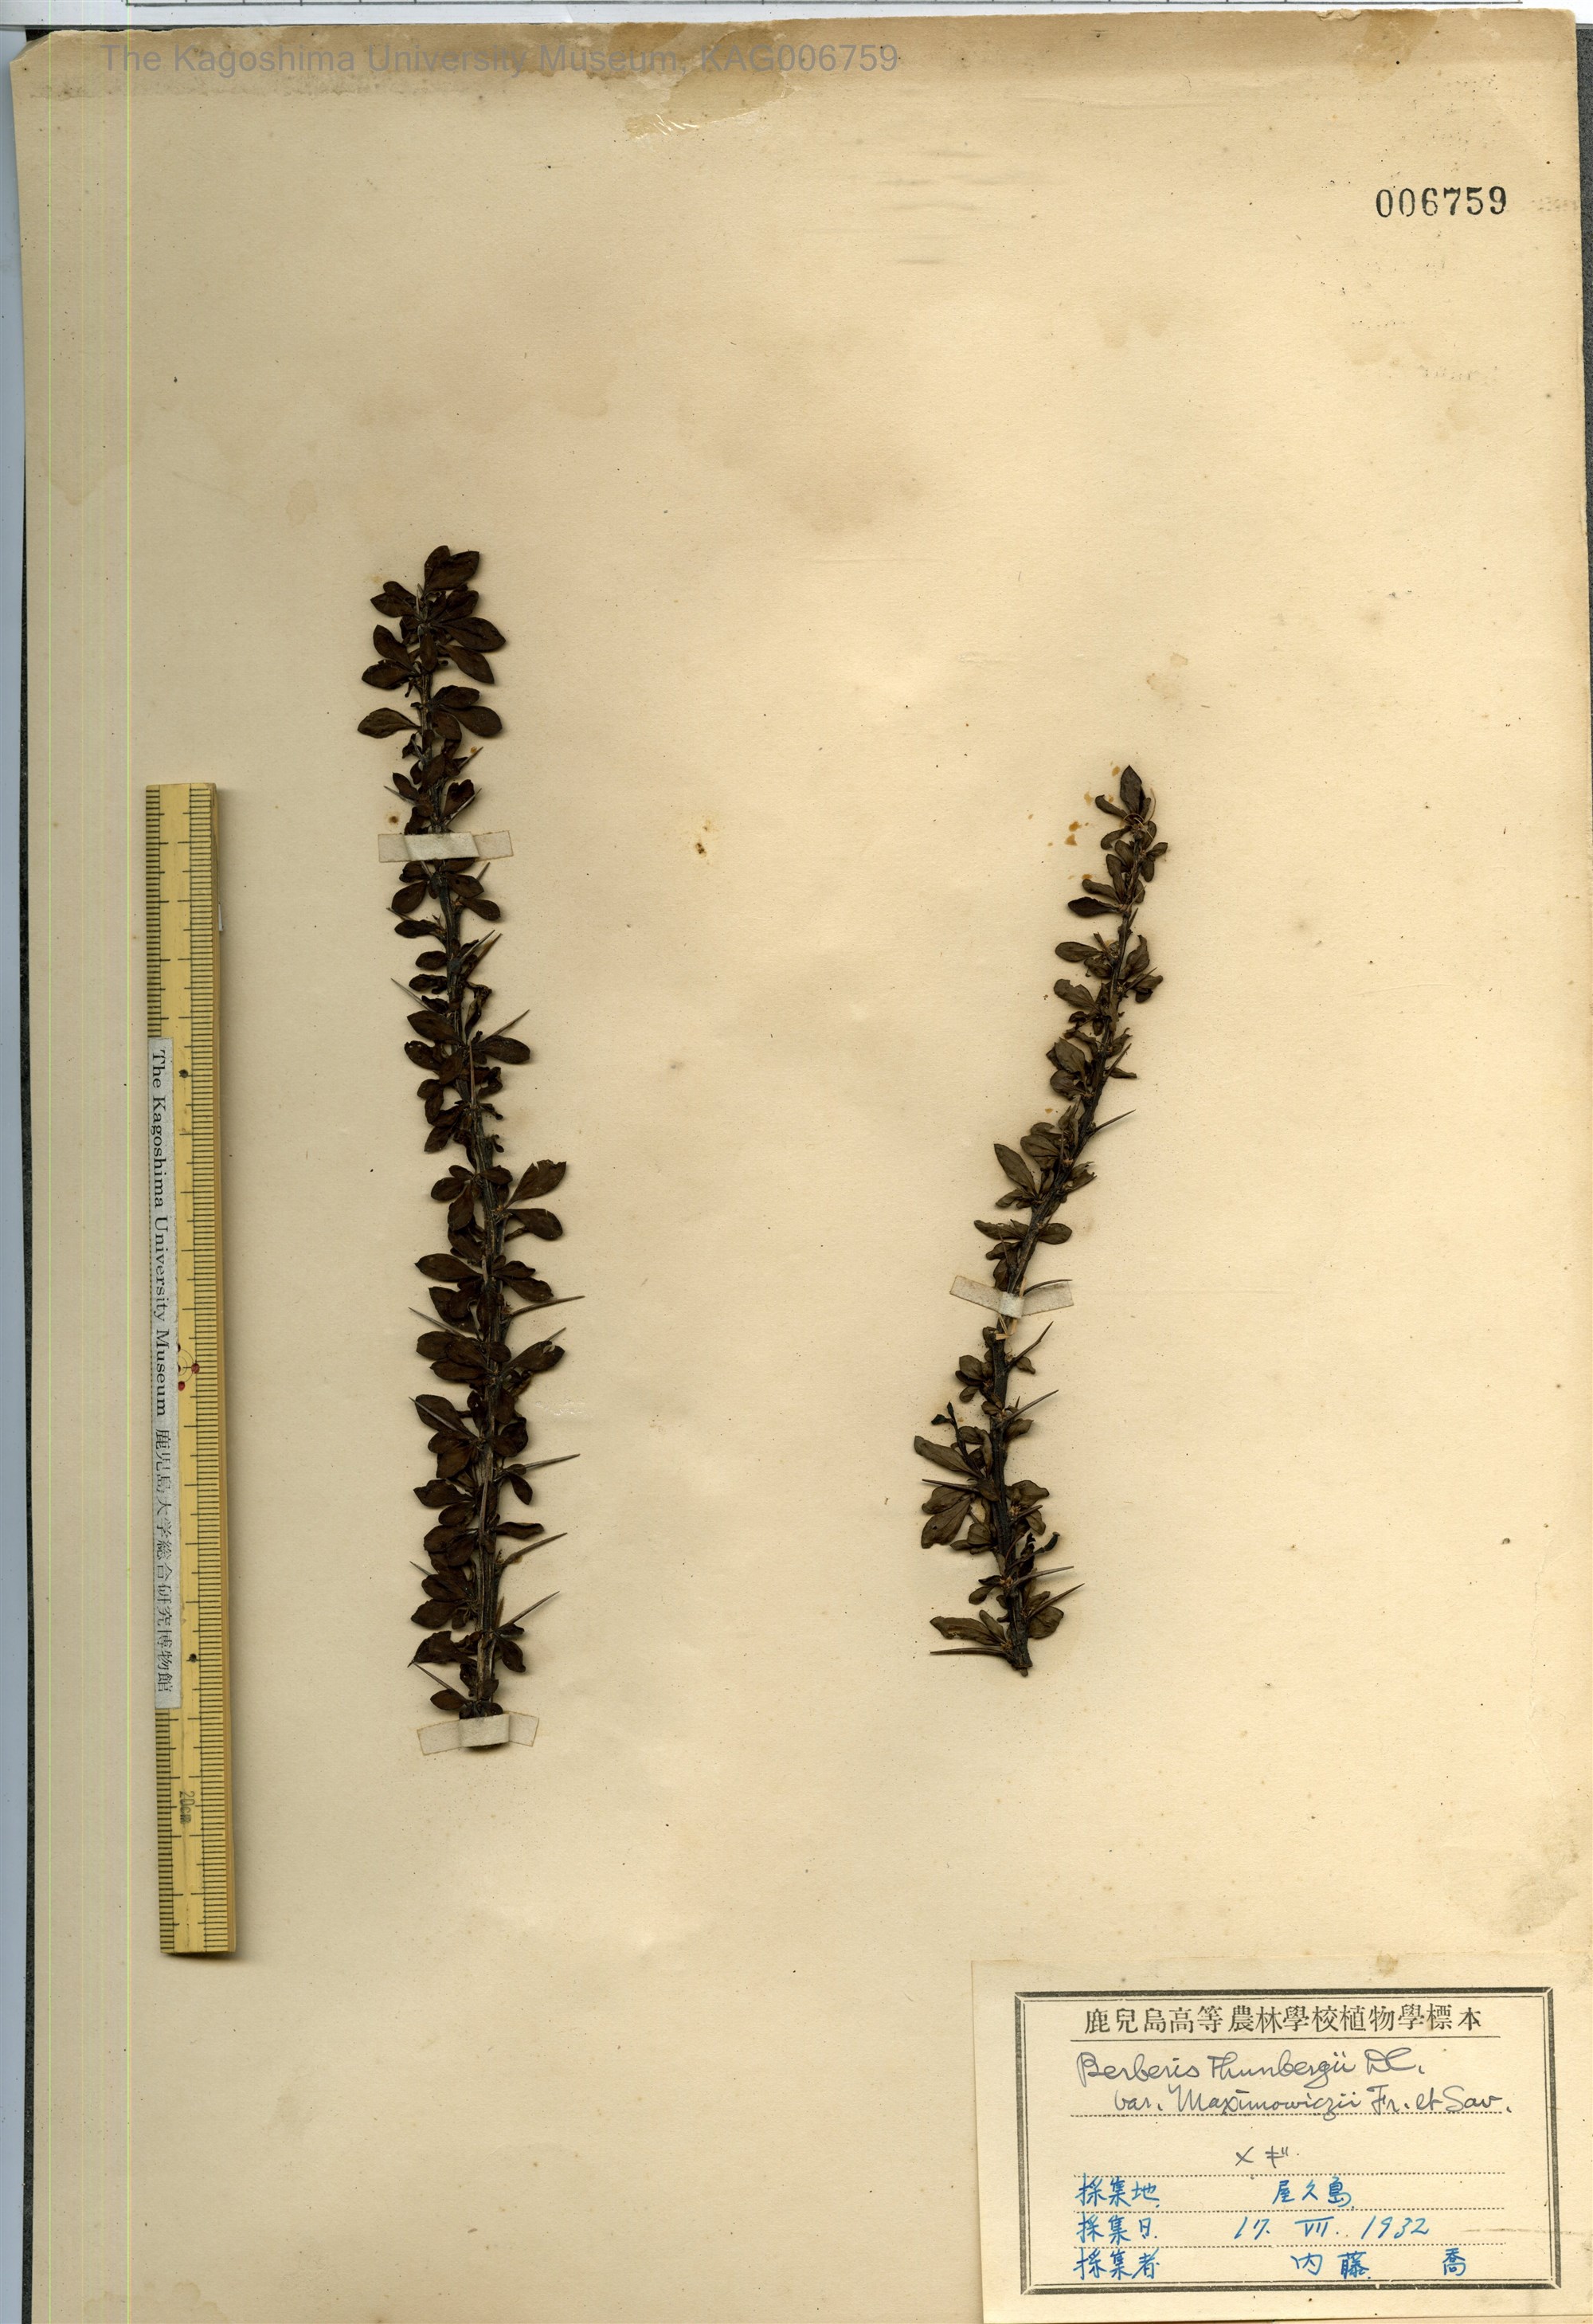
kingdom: Plantae
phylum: Tracheophyta
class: Magnoliopsida
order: Ranunculales
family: Berberidaceae
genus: Berberis
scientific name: Berberis thunbergii
